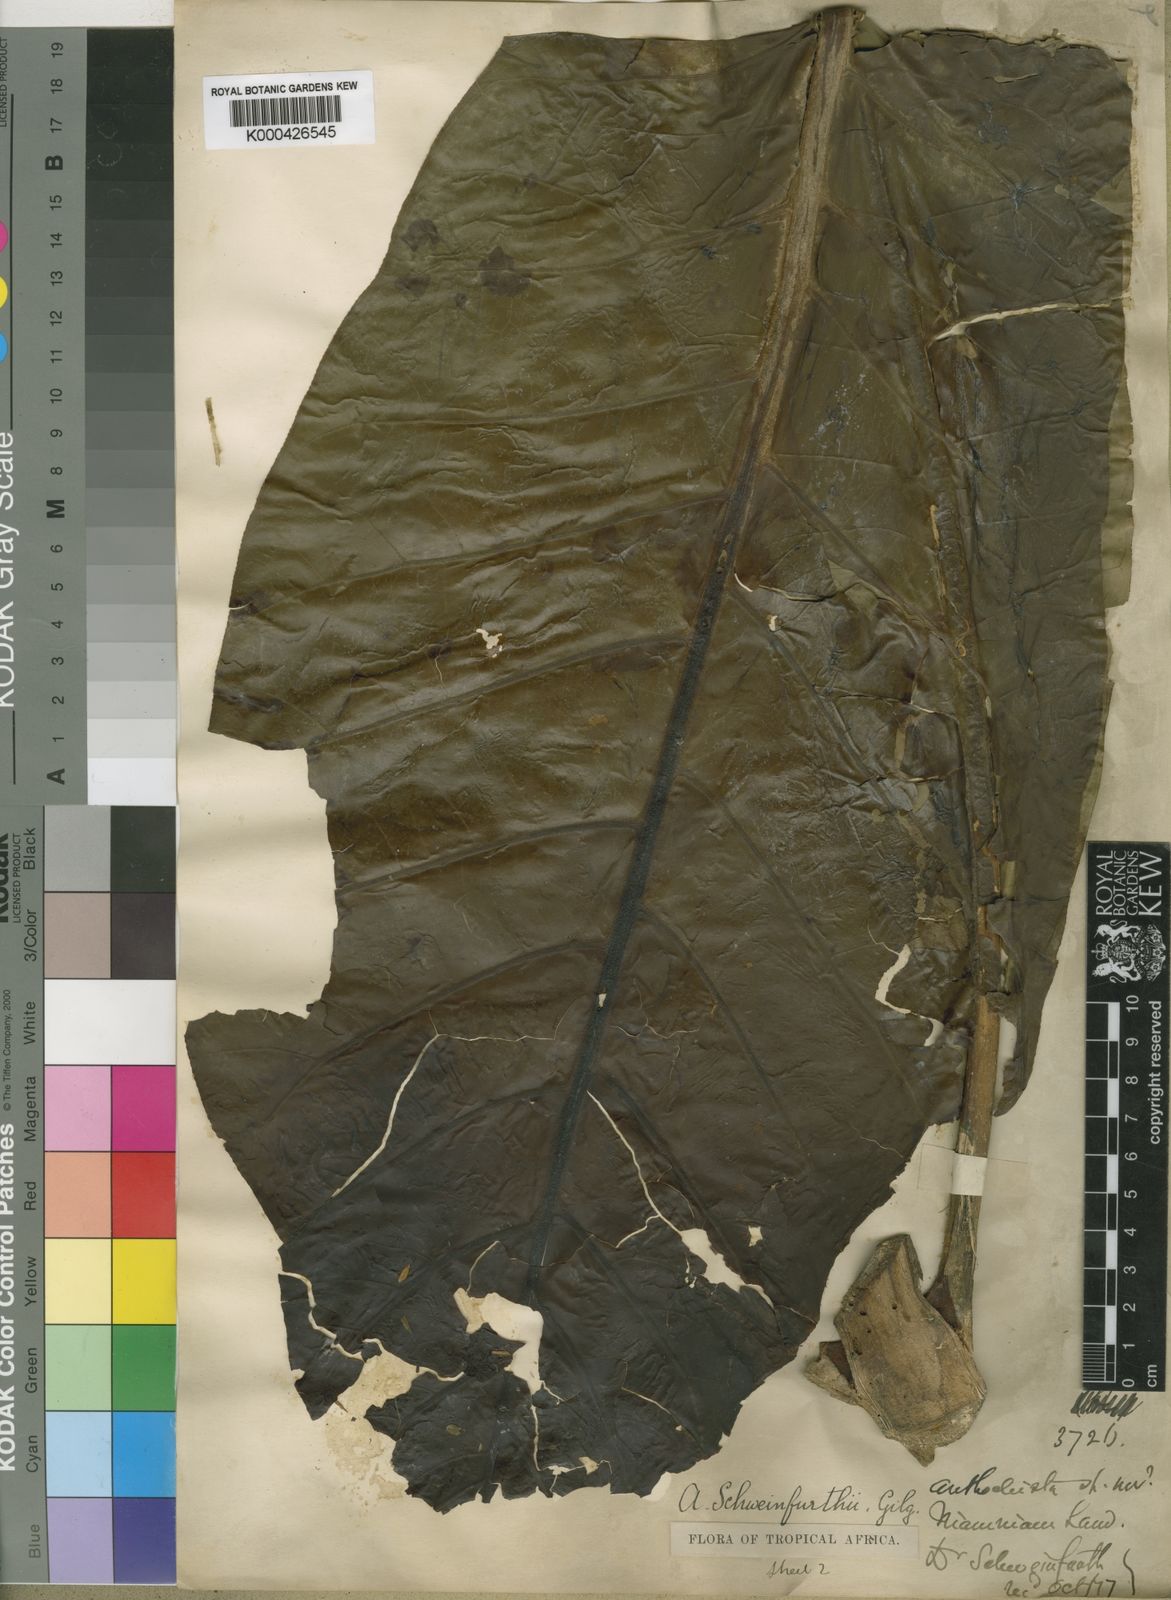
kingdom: Plantae
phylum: Tracheophyta
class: Magnoliopsida
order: Gentianales
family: Gentianaceae
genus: Anthocleista
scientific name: Anthocleista schweinfurthii
